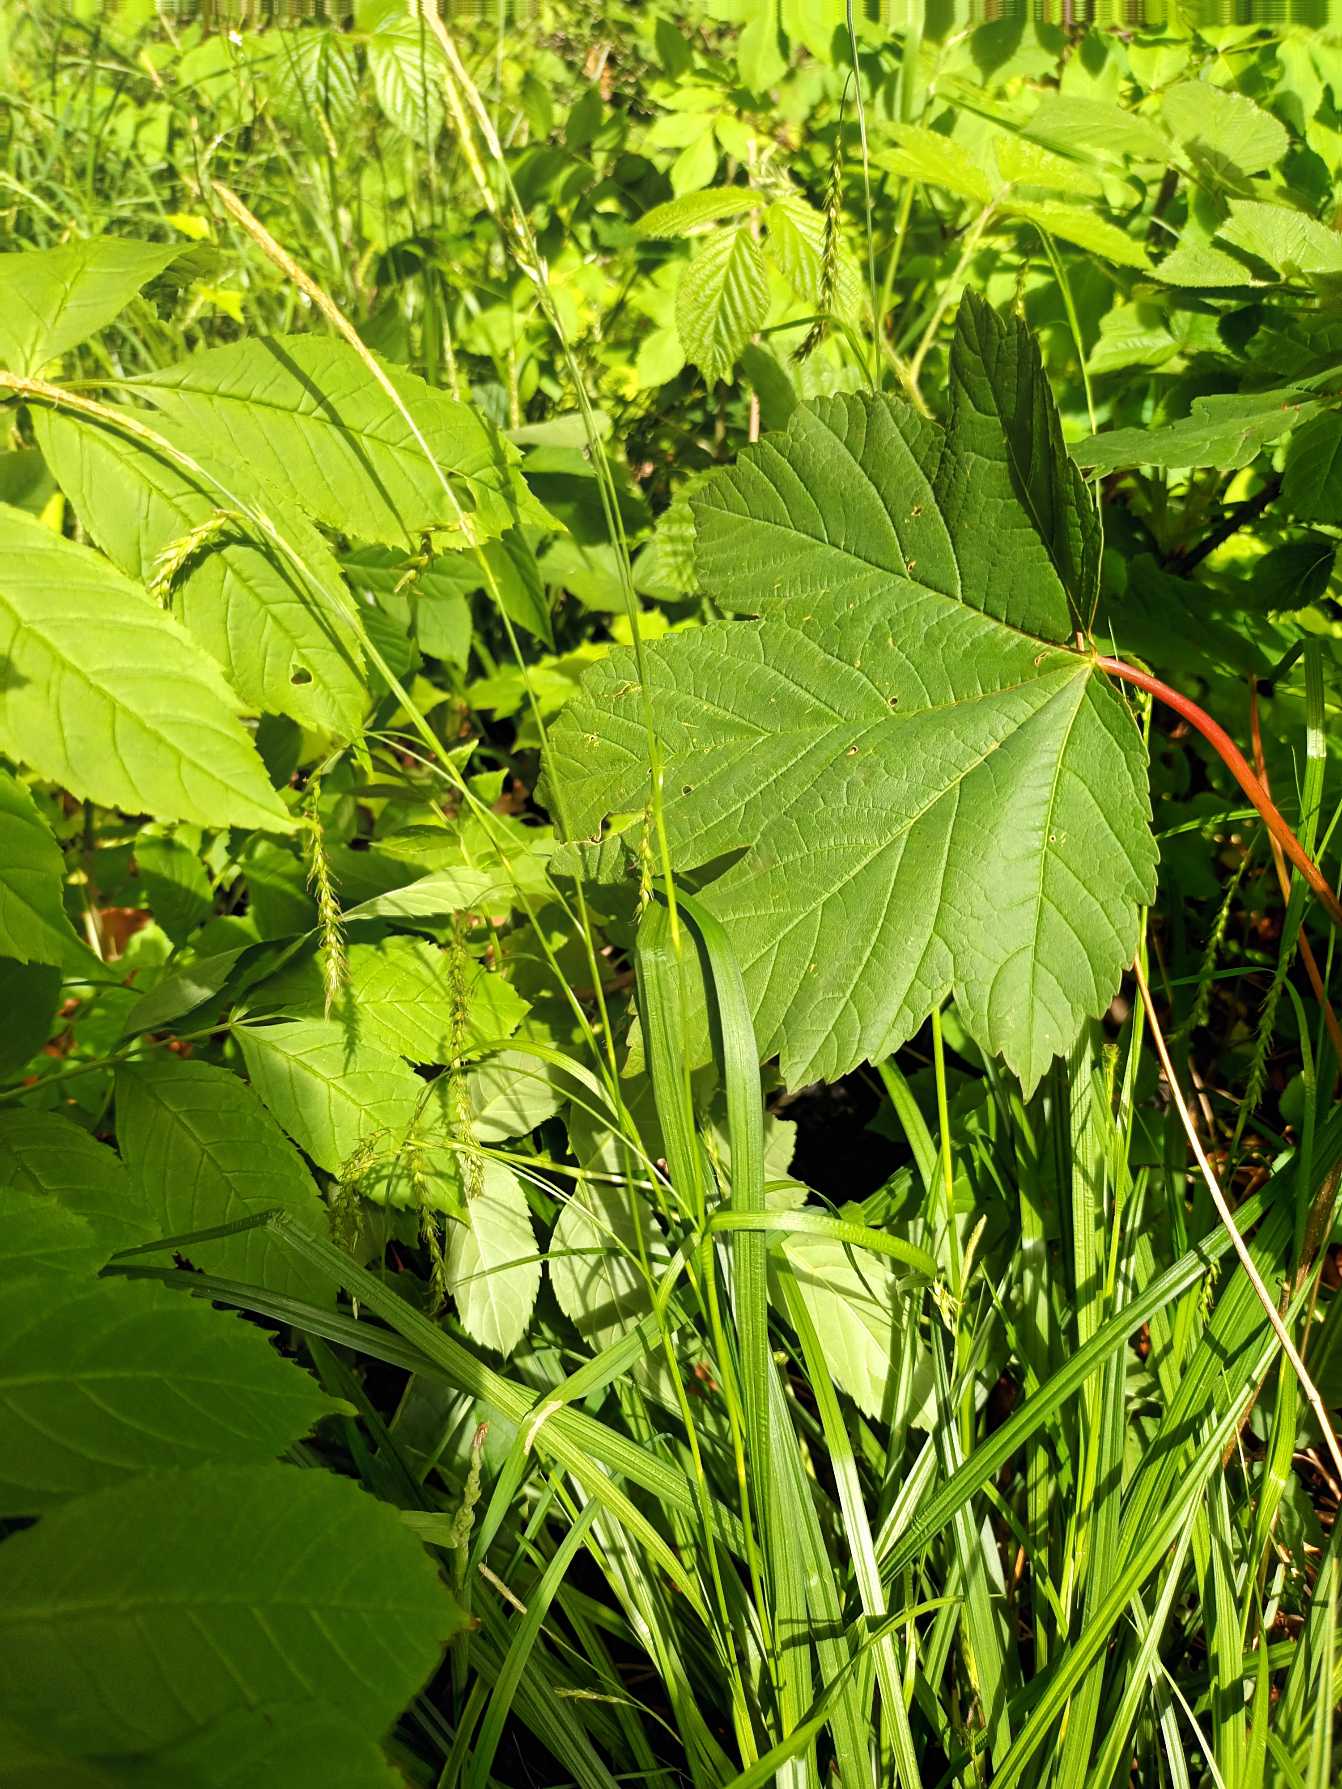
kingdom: Plantae
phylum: Tracheophyta
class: Liliopsida
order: Poales
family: Cyperaceae
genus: Carex
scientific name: Carex sylvatica
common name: Skov-star
